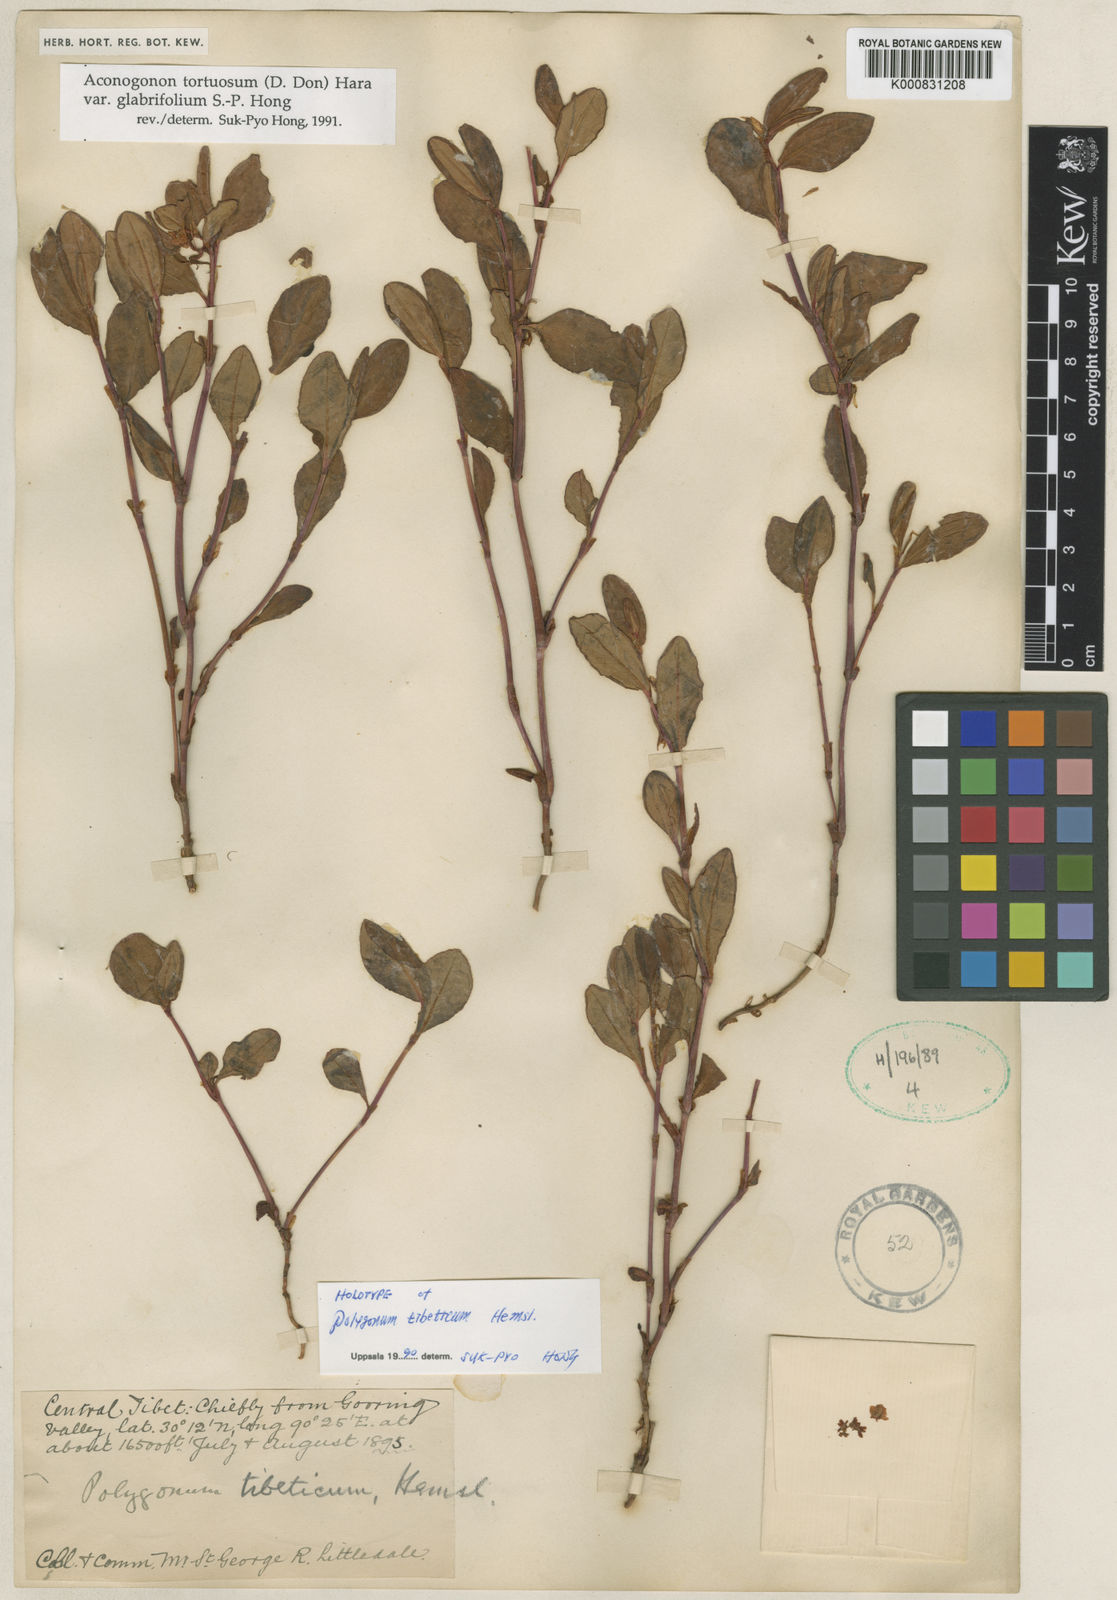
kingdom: Plantae
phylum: Tracheophyta
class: Magnoliopsida
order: Caryophyllales
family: Polygonaceae
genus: Koenigia
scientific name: Koenigia tortuosa
